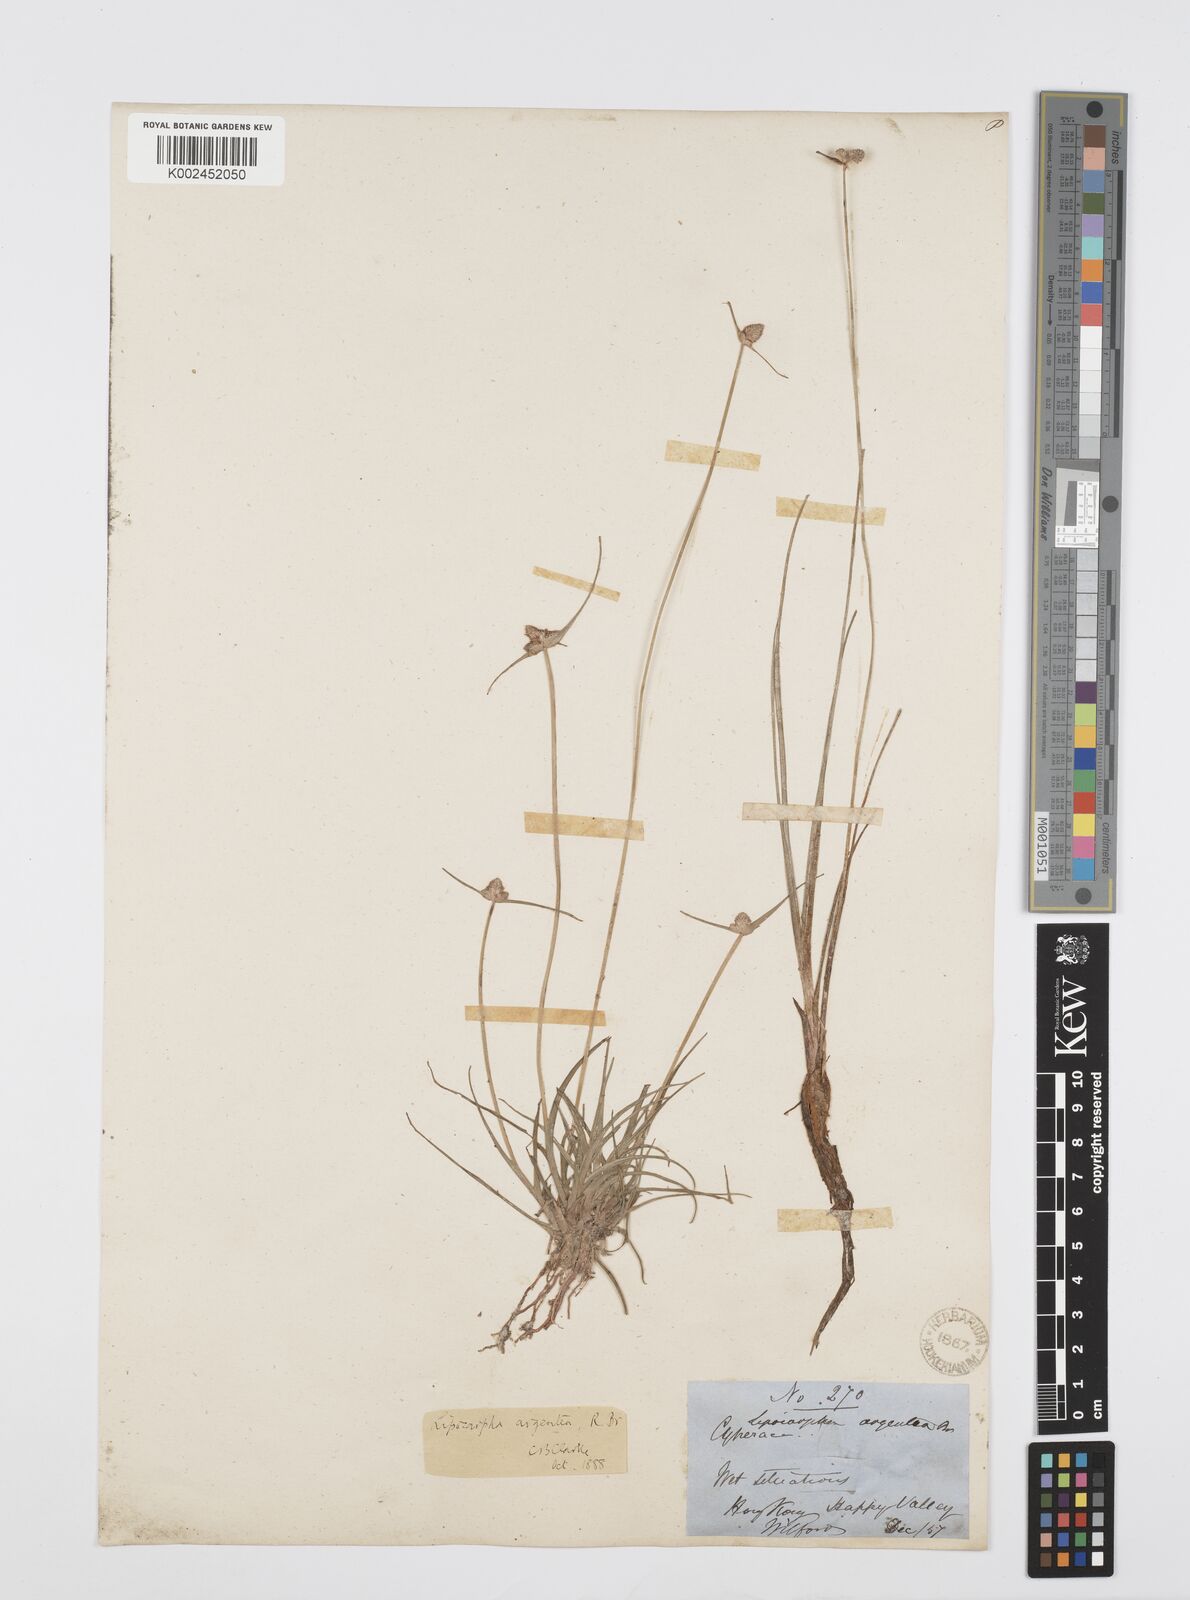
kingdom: Plantae
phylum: Tracheophyta
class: Liliopsida
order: Poales
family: Cyperaceae
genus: Cyperus
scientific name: Cyperus albescens
